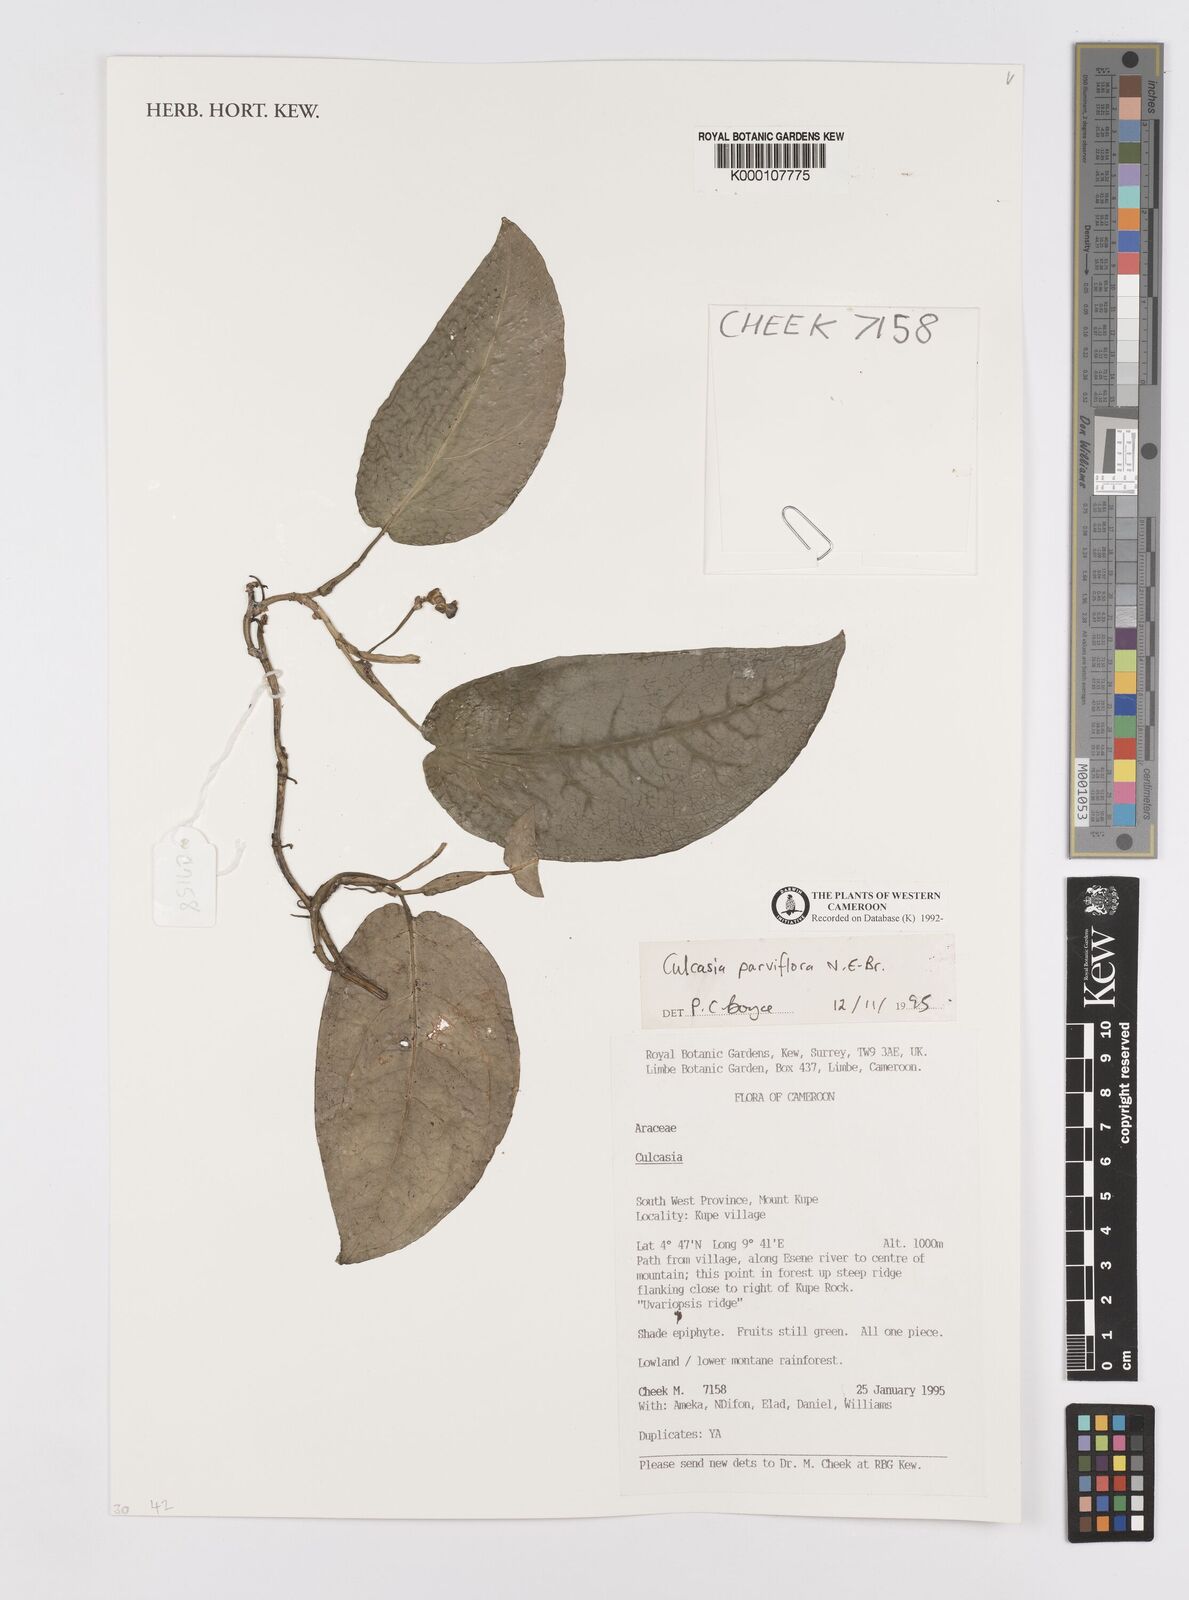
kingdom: Plantae
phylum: Tracheophyta
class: Liliopsida
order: Alismatales
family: Araceae
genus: Culcasia
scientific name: Culcasia parviflora
